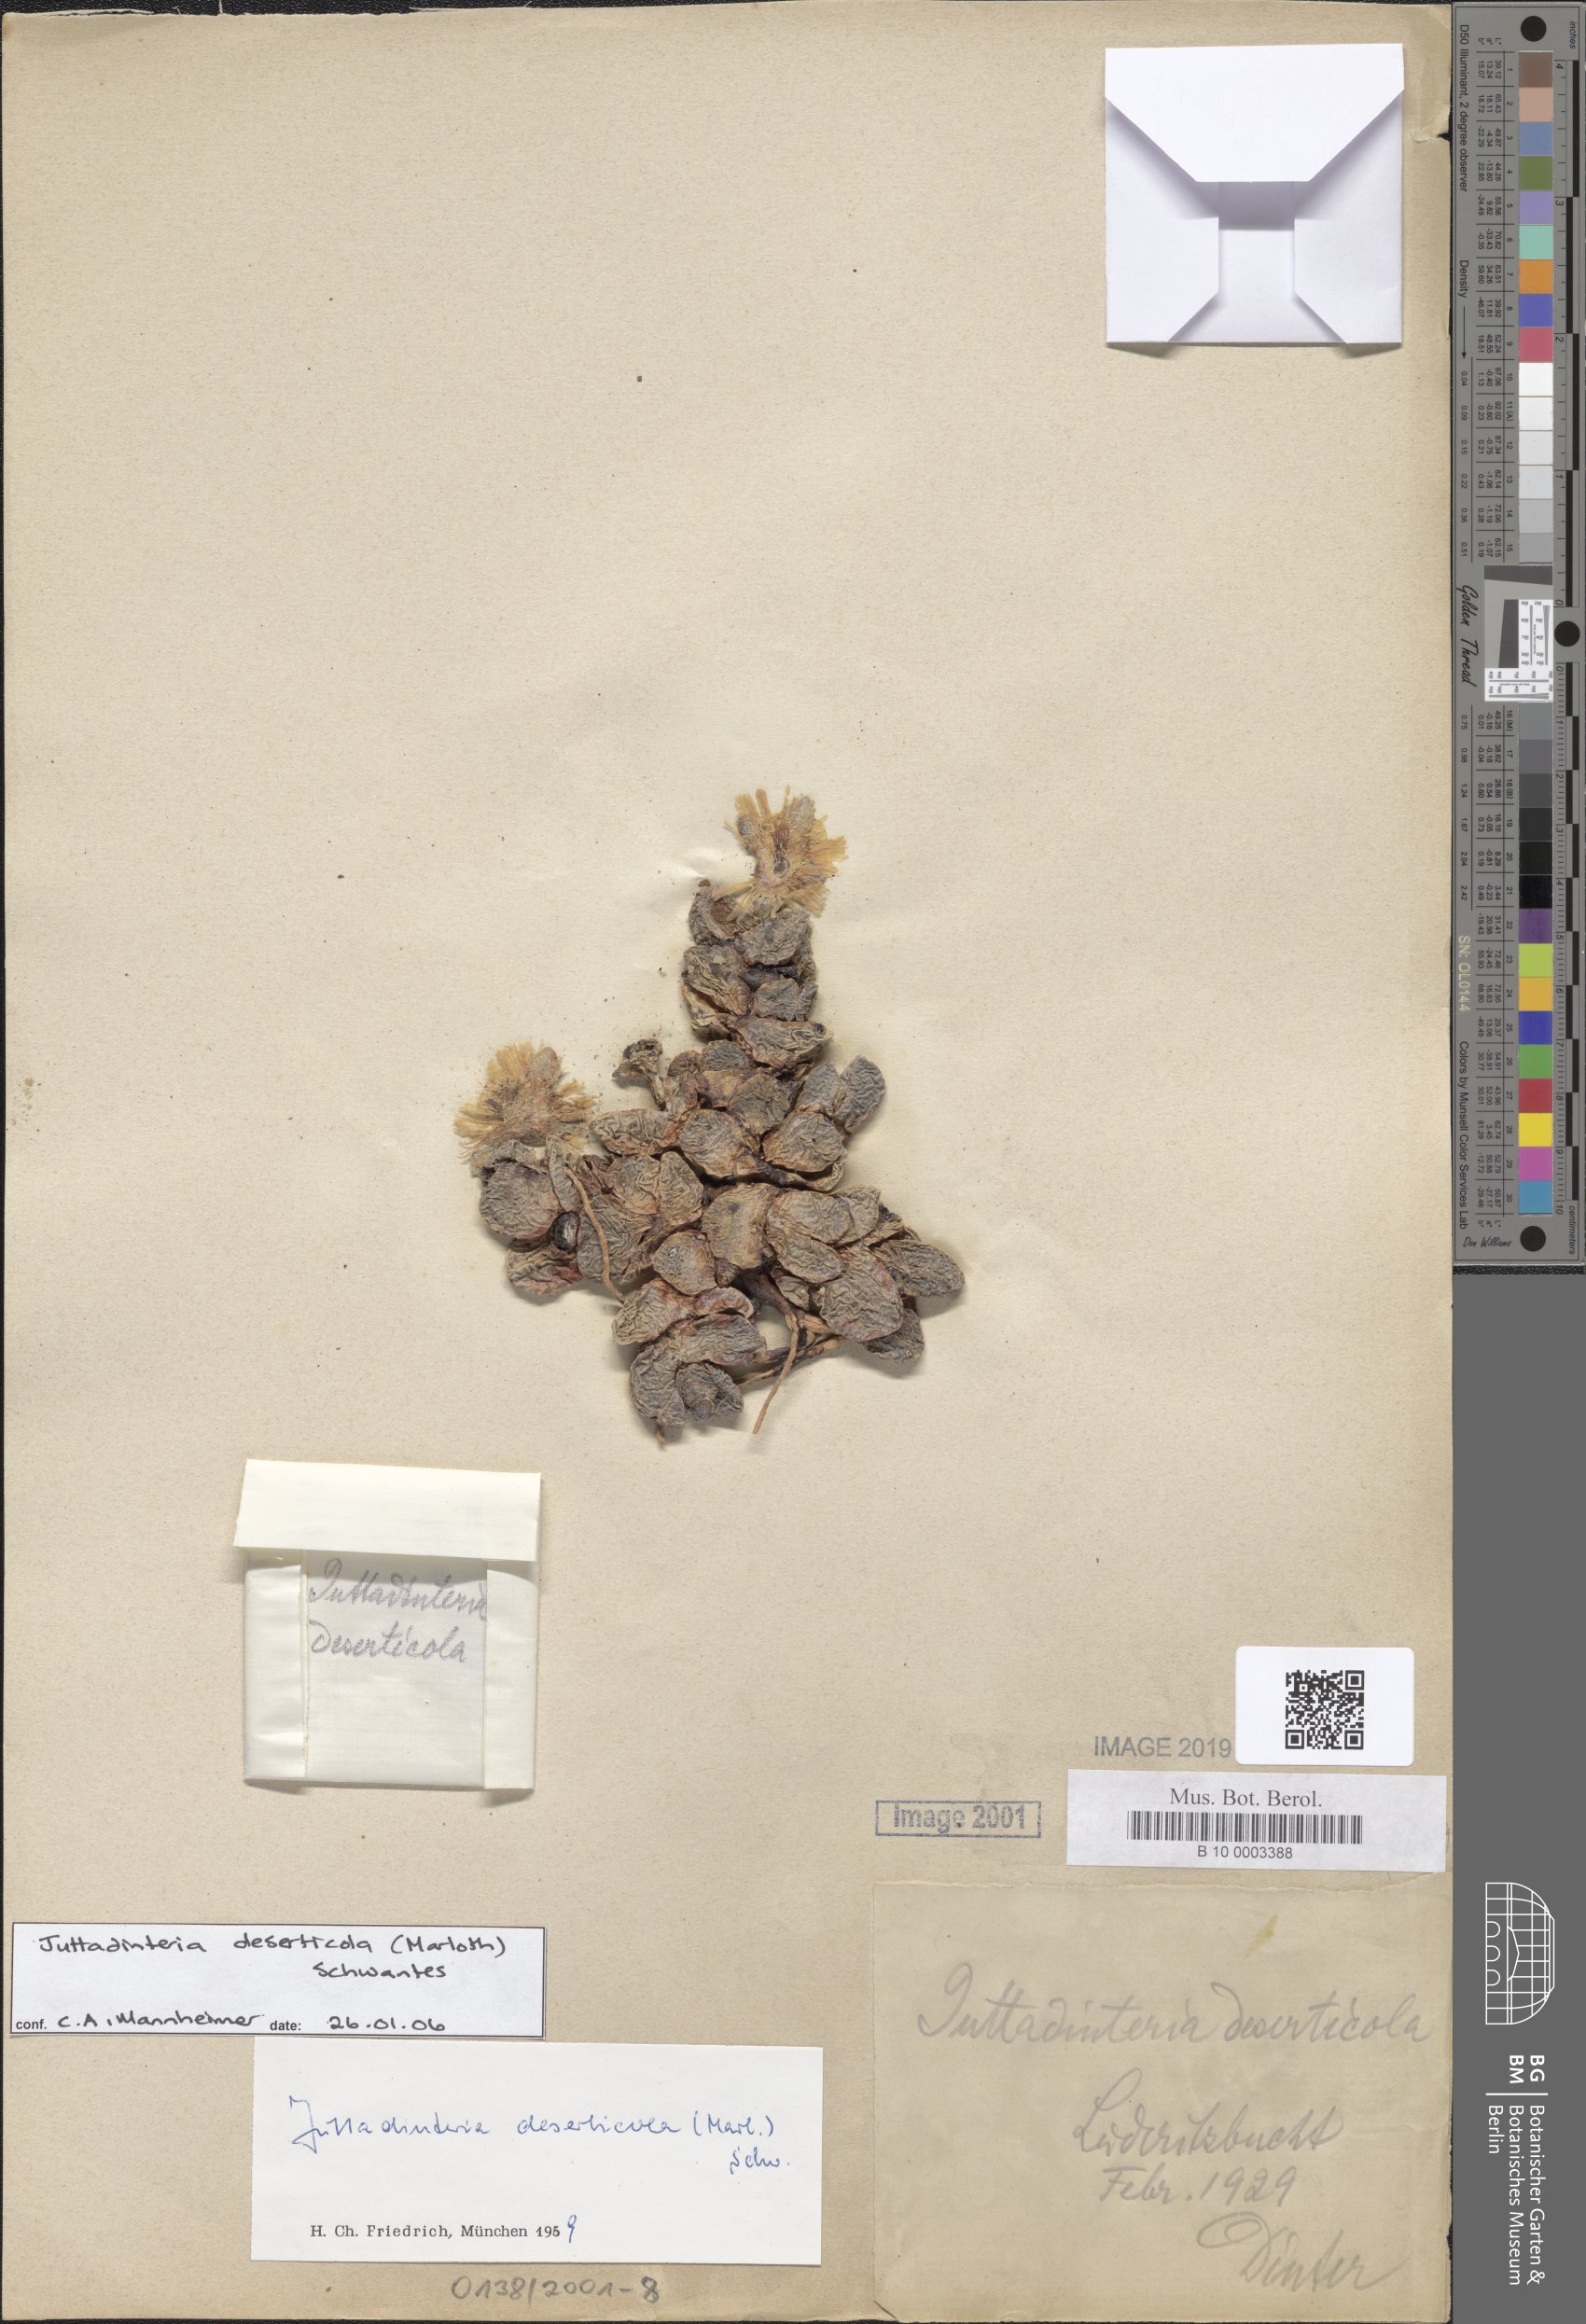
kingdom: Plantae
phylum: Tracheophyta
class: Magnoliopsida
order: Caryophyllales
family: Aizoaceae
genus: Juttadinteria
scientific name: Juttadinteria deserticola
